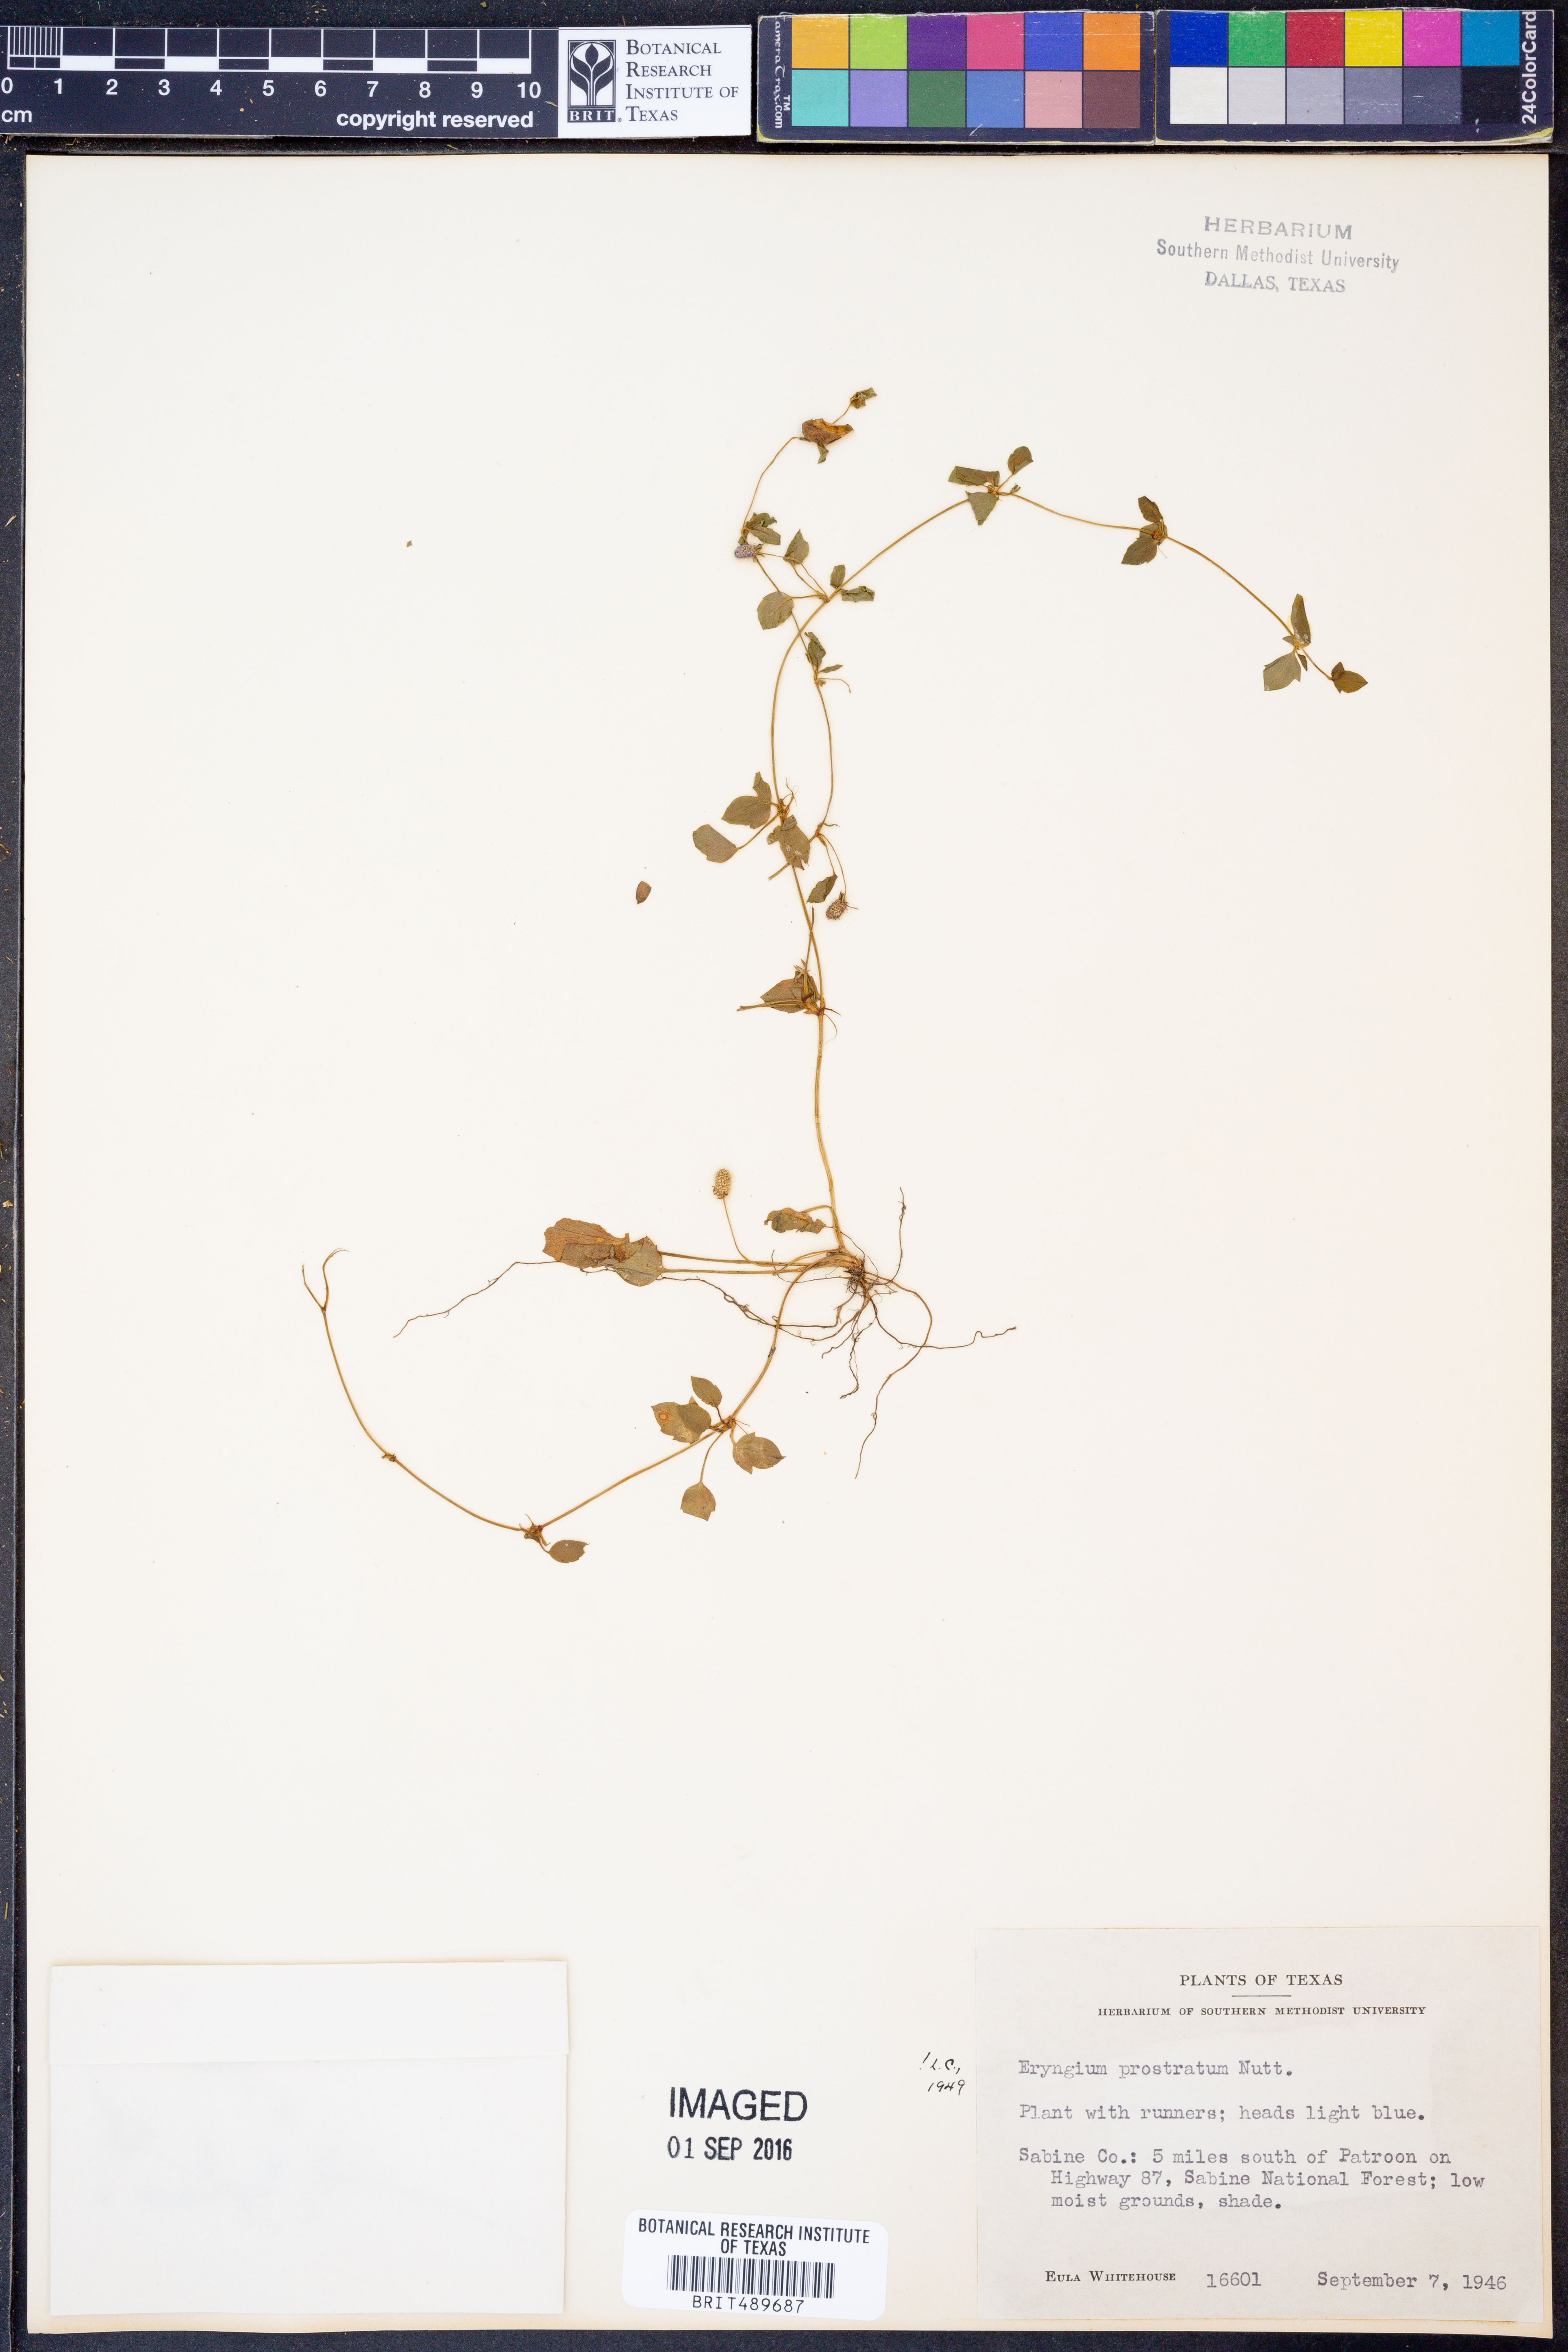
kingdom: Plantae
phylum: Tracheophyta
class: Magnoliopsida
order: Apiales
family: Apiaceae
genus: Eryngium
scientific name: Eryngium prostratum
